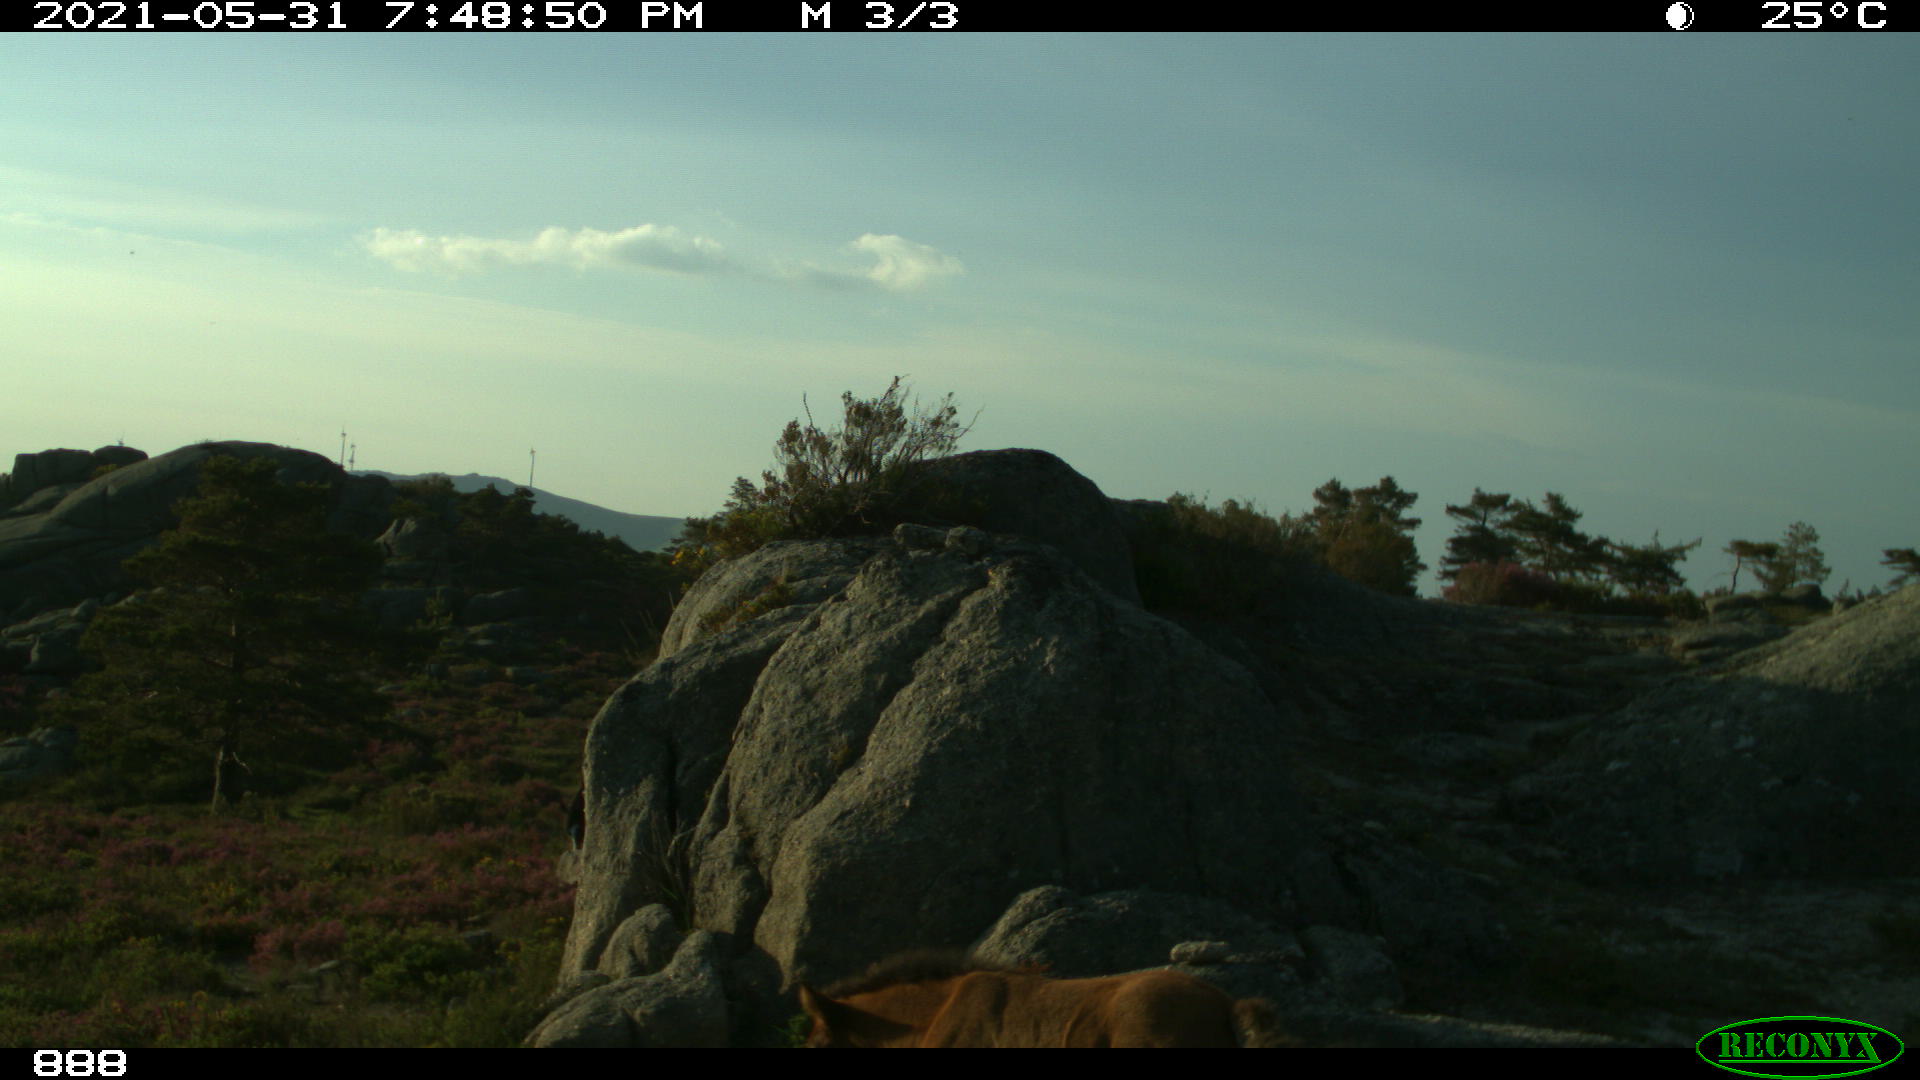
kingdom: Animalia
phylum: Chordata
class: Mammalia
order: Perissodactyla
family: Equidae
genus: Equus
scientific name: Equus caballus
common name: Horse
